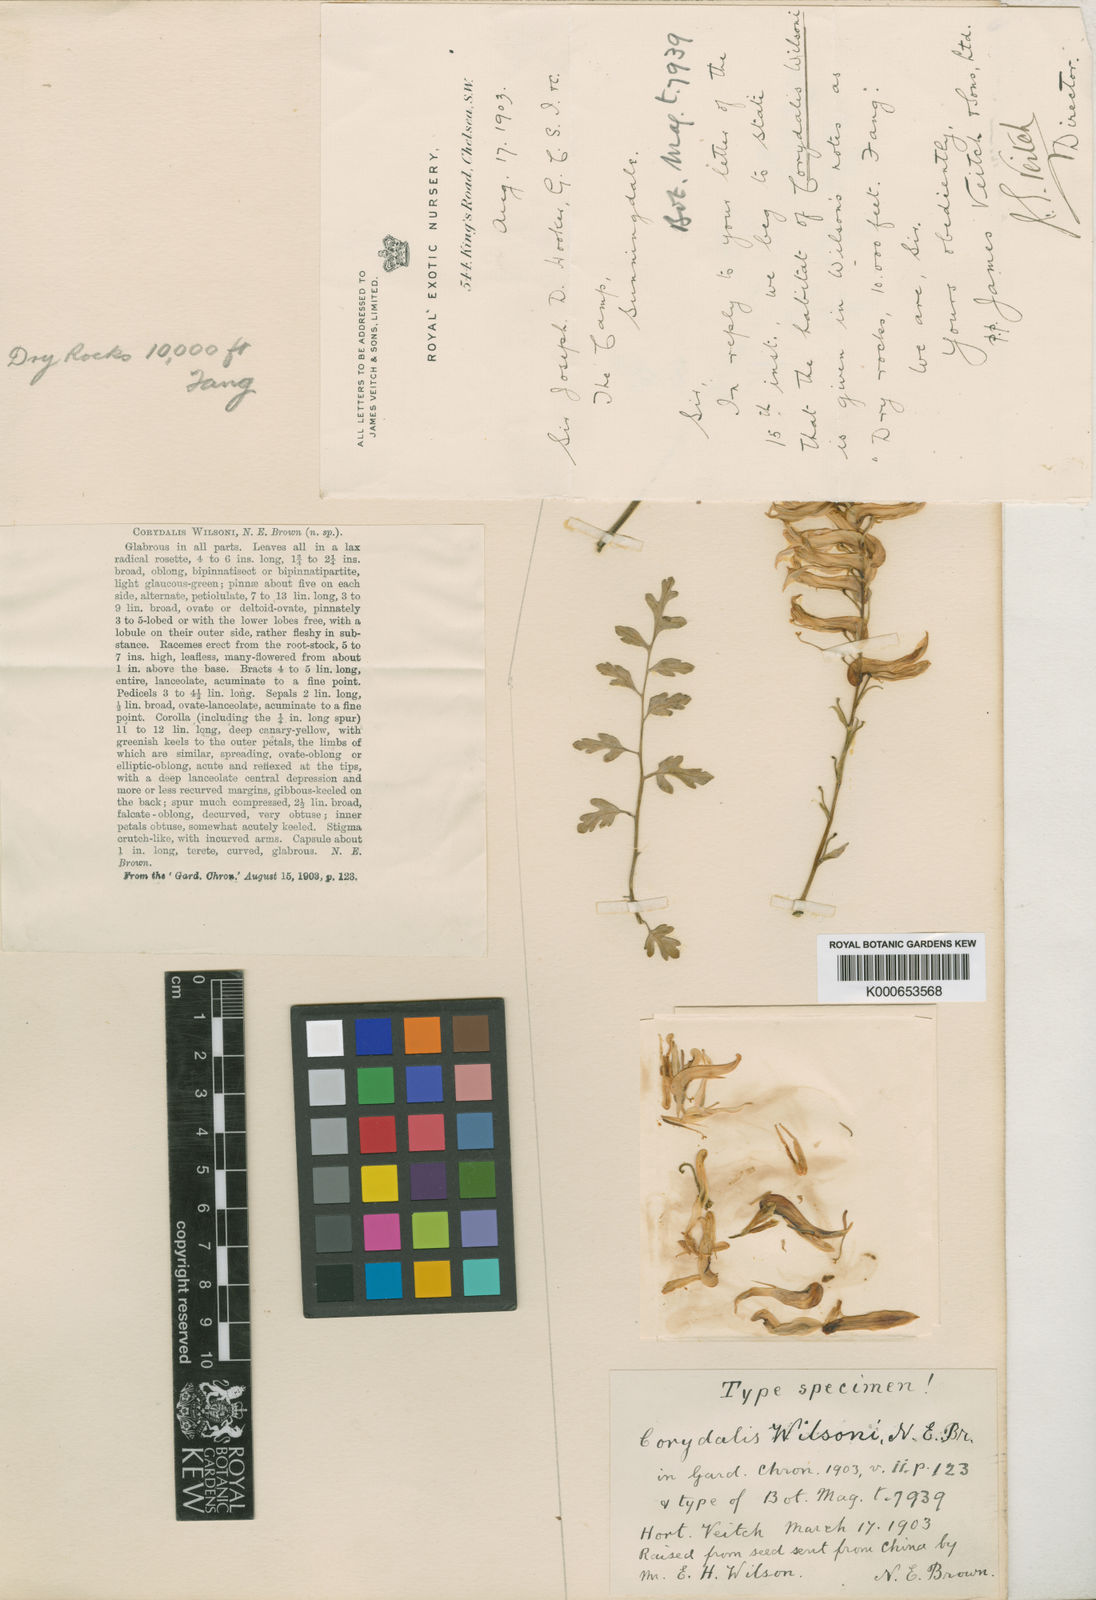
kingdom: Plantae
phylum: Tracheophyta
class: Magnoliopsida
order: Ranunculales
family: Papaveraceae
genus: Corydalis
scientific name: Corydalis wilsonii
